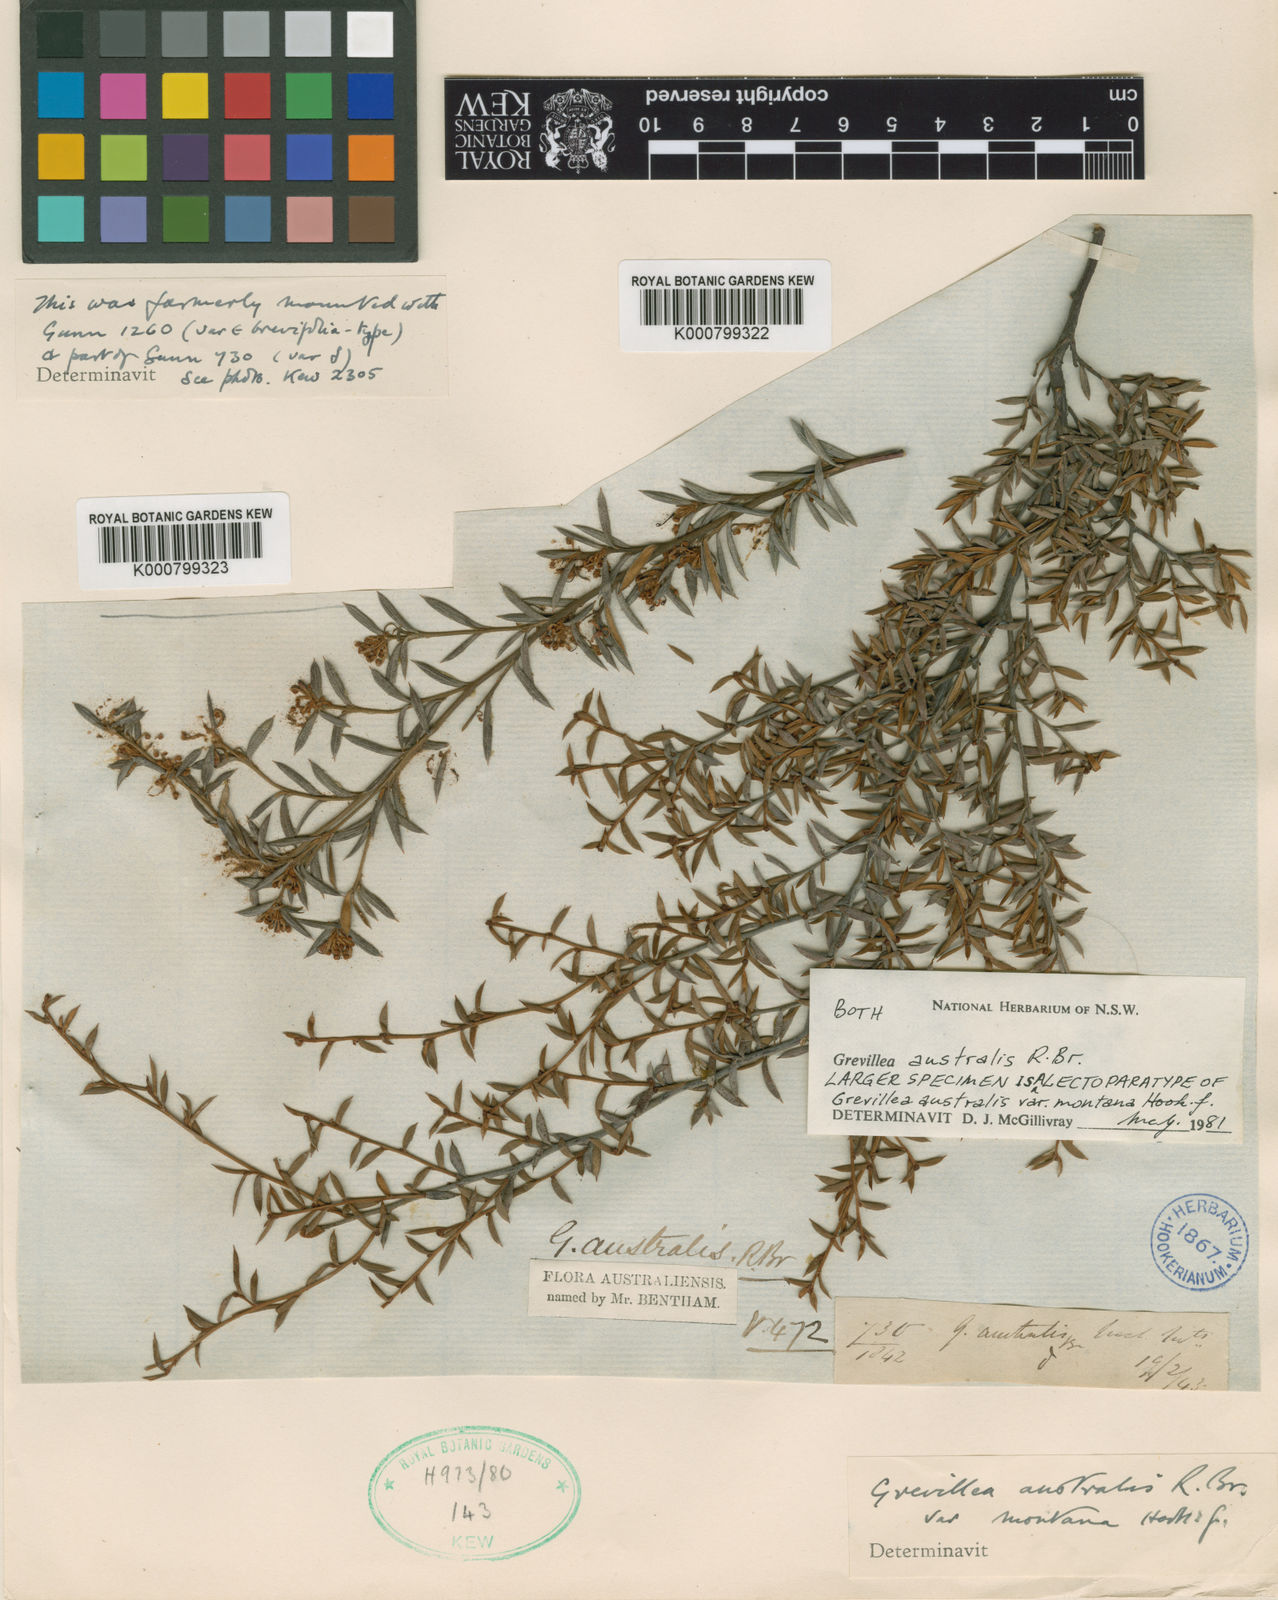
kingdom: Plantae
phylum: Tracheophyta
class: Magnoliopsida
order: Proteales
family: Proteaceae
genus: Grevillea
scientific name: Grevillea australis
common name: Alpine grevillea
